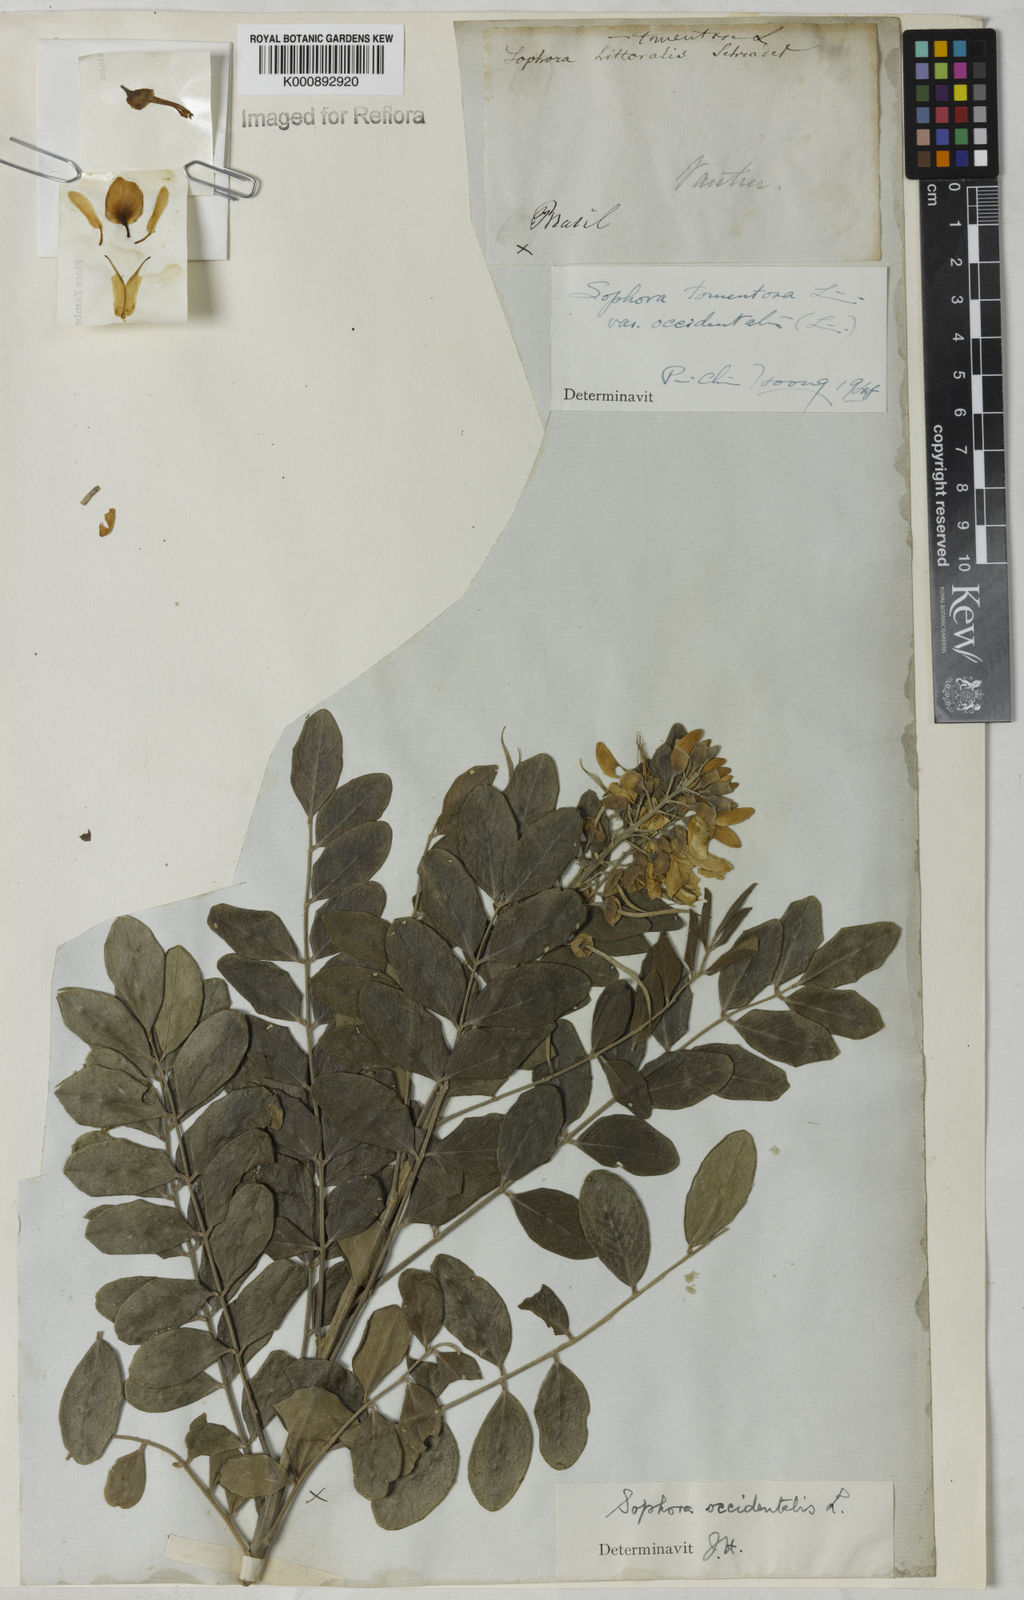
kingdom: Plantae
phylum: Tracheophyta
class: Magnoliopsida
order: Fabales
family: Fabaceae
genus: Sophora
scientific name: Sophora
